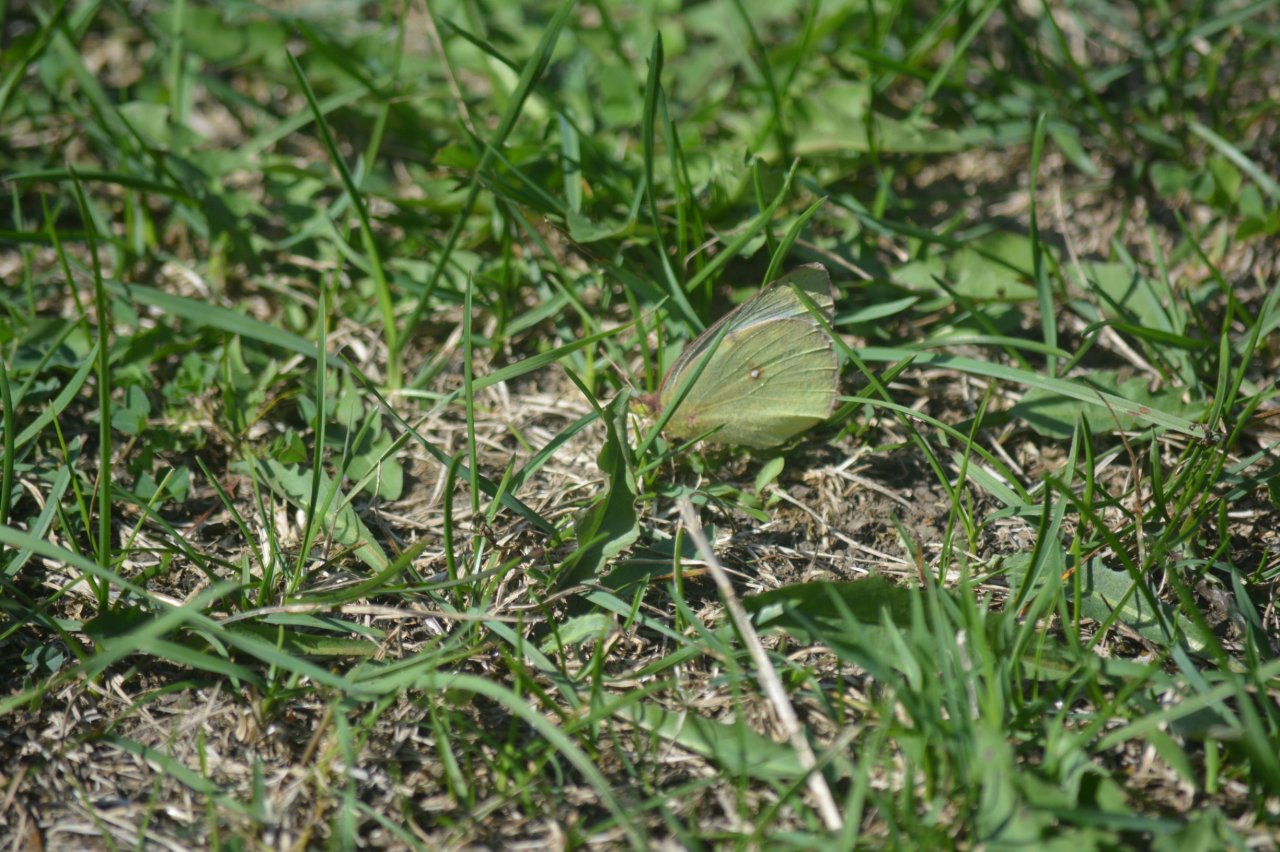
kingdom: Animalia
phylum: Arthropoda
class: Insecta
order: Lepidoptera
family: Pieridae
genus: Colias
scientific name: Colias philodice
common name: Clouded Sulphur
